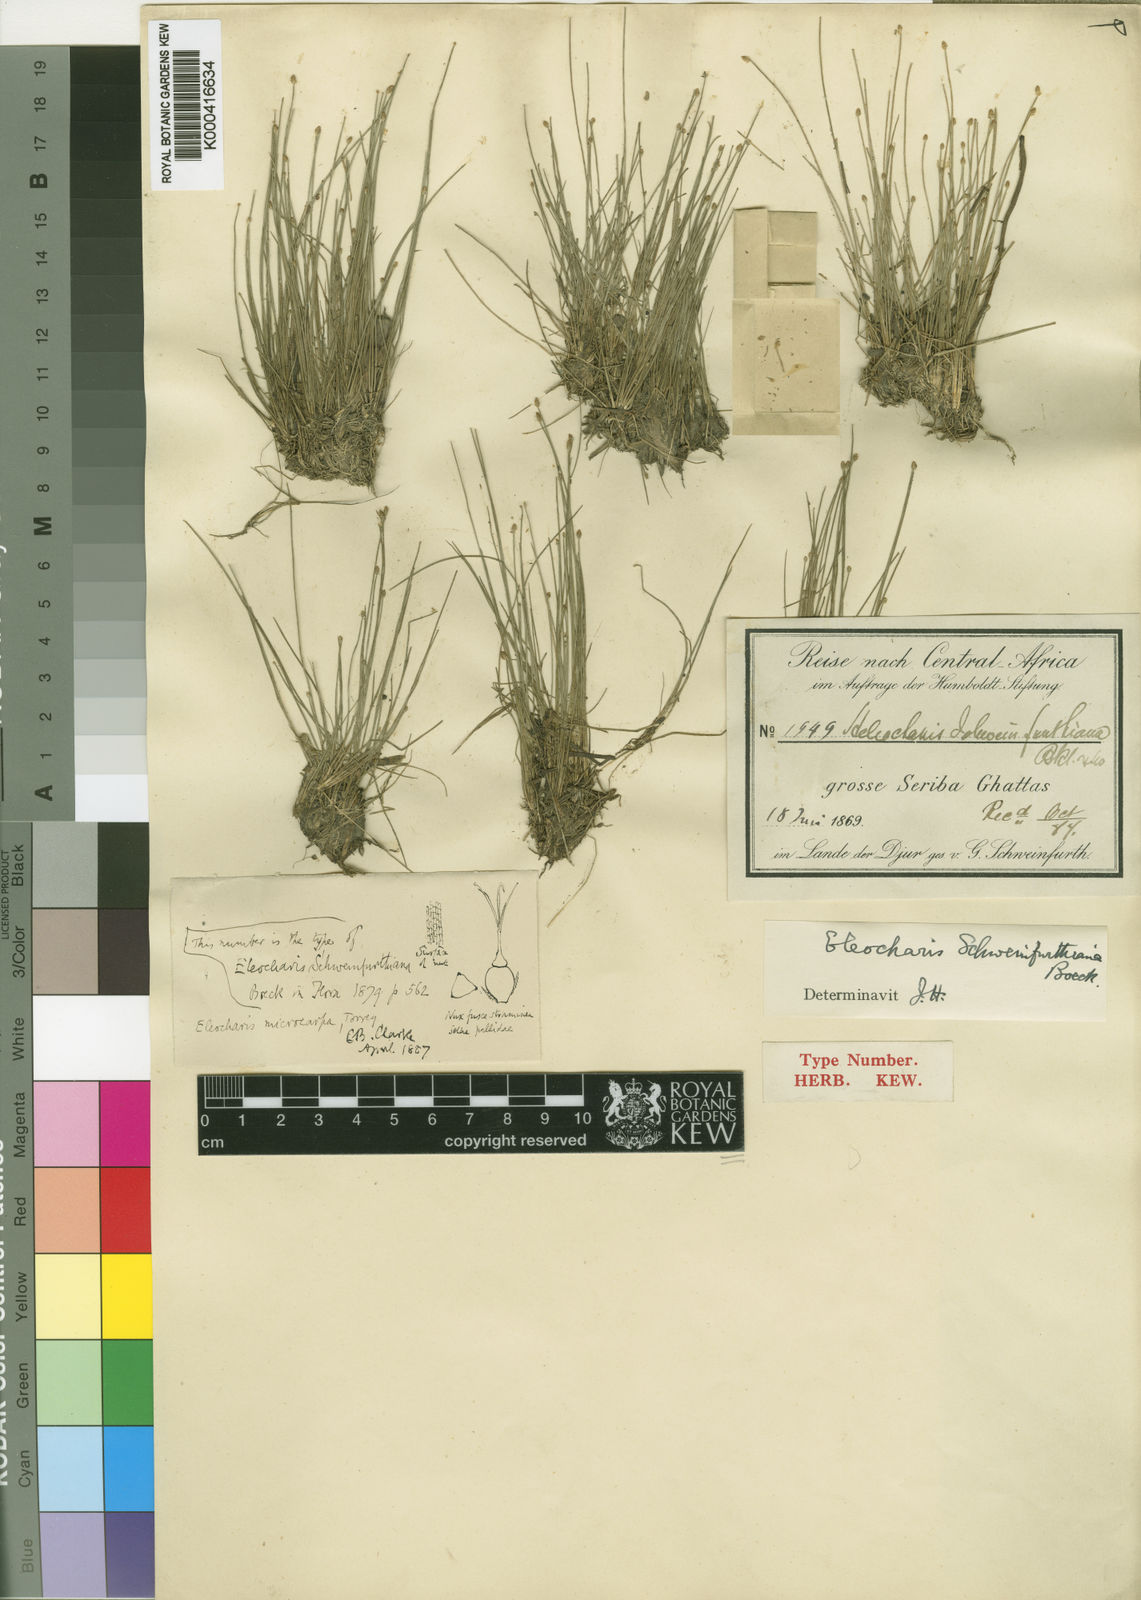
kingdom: Plantae
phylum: Tracheophyta
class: Liliopsida
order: Poales
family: Cyperaceae
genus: Eleocharis
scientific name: Eleocharis setifolia
